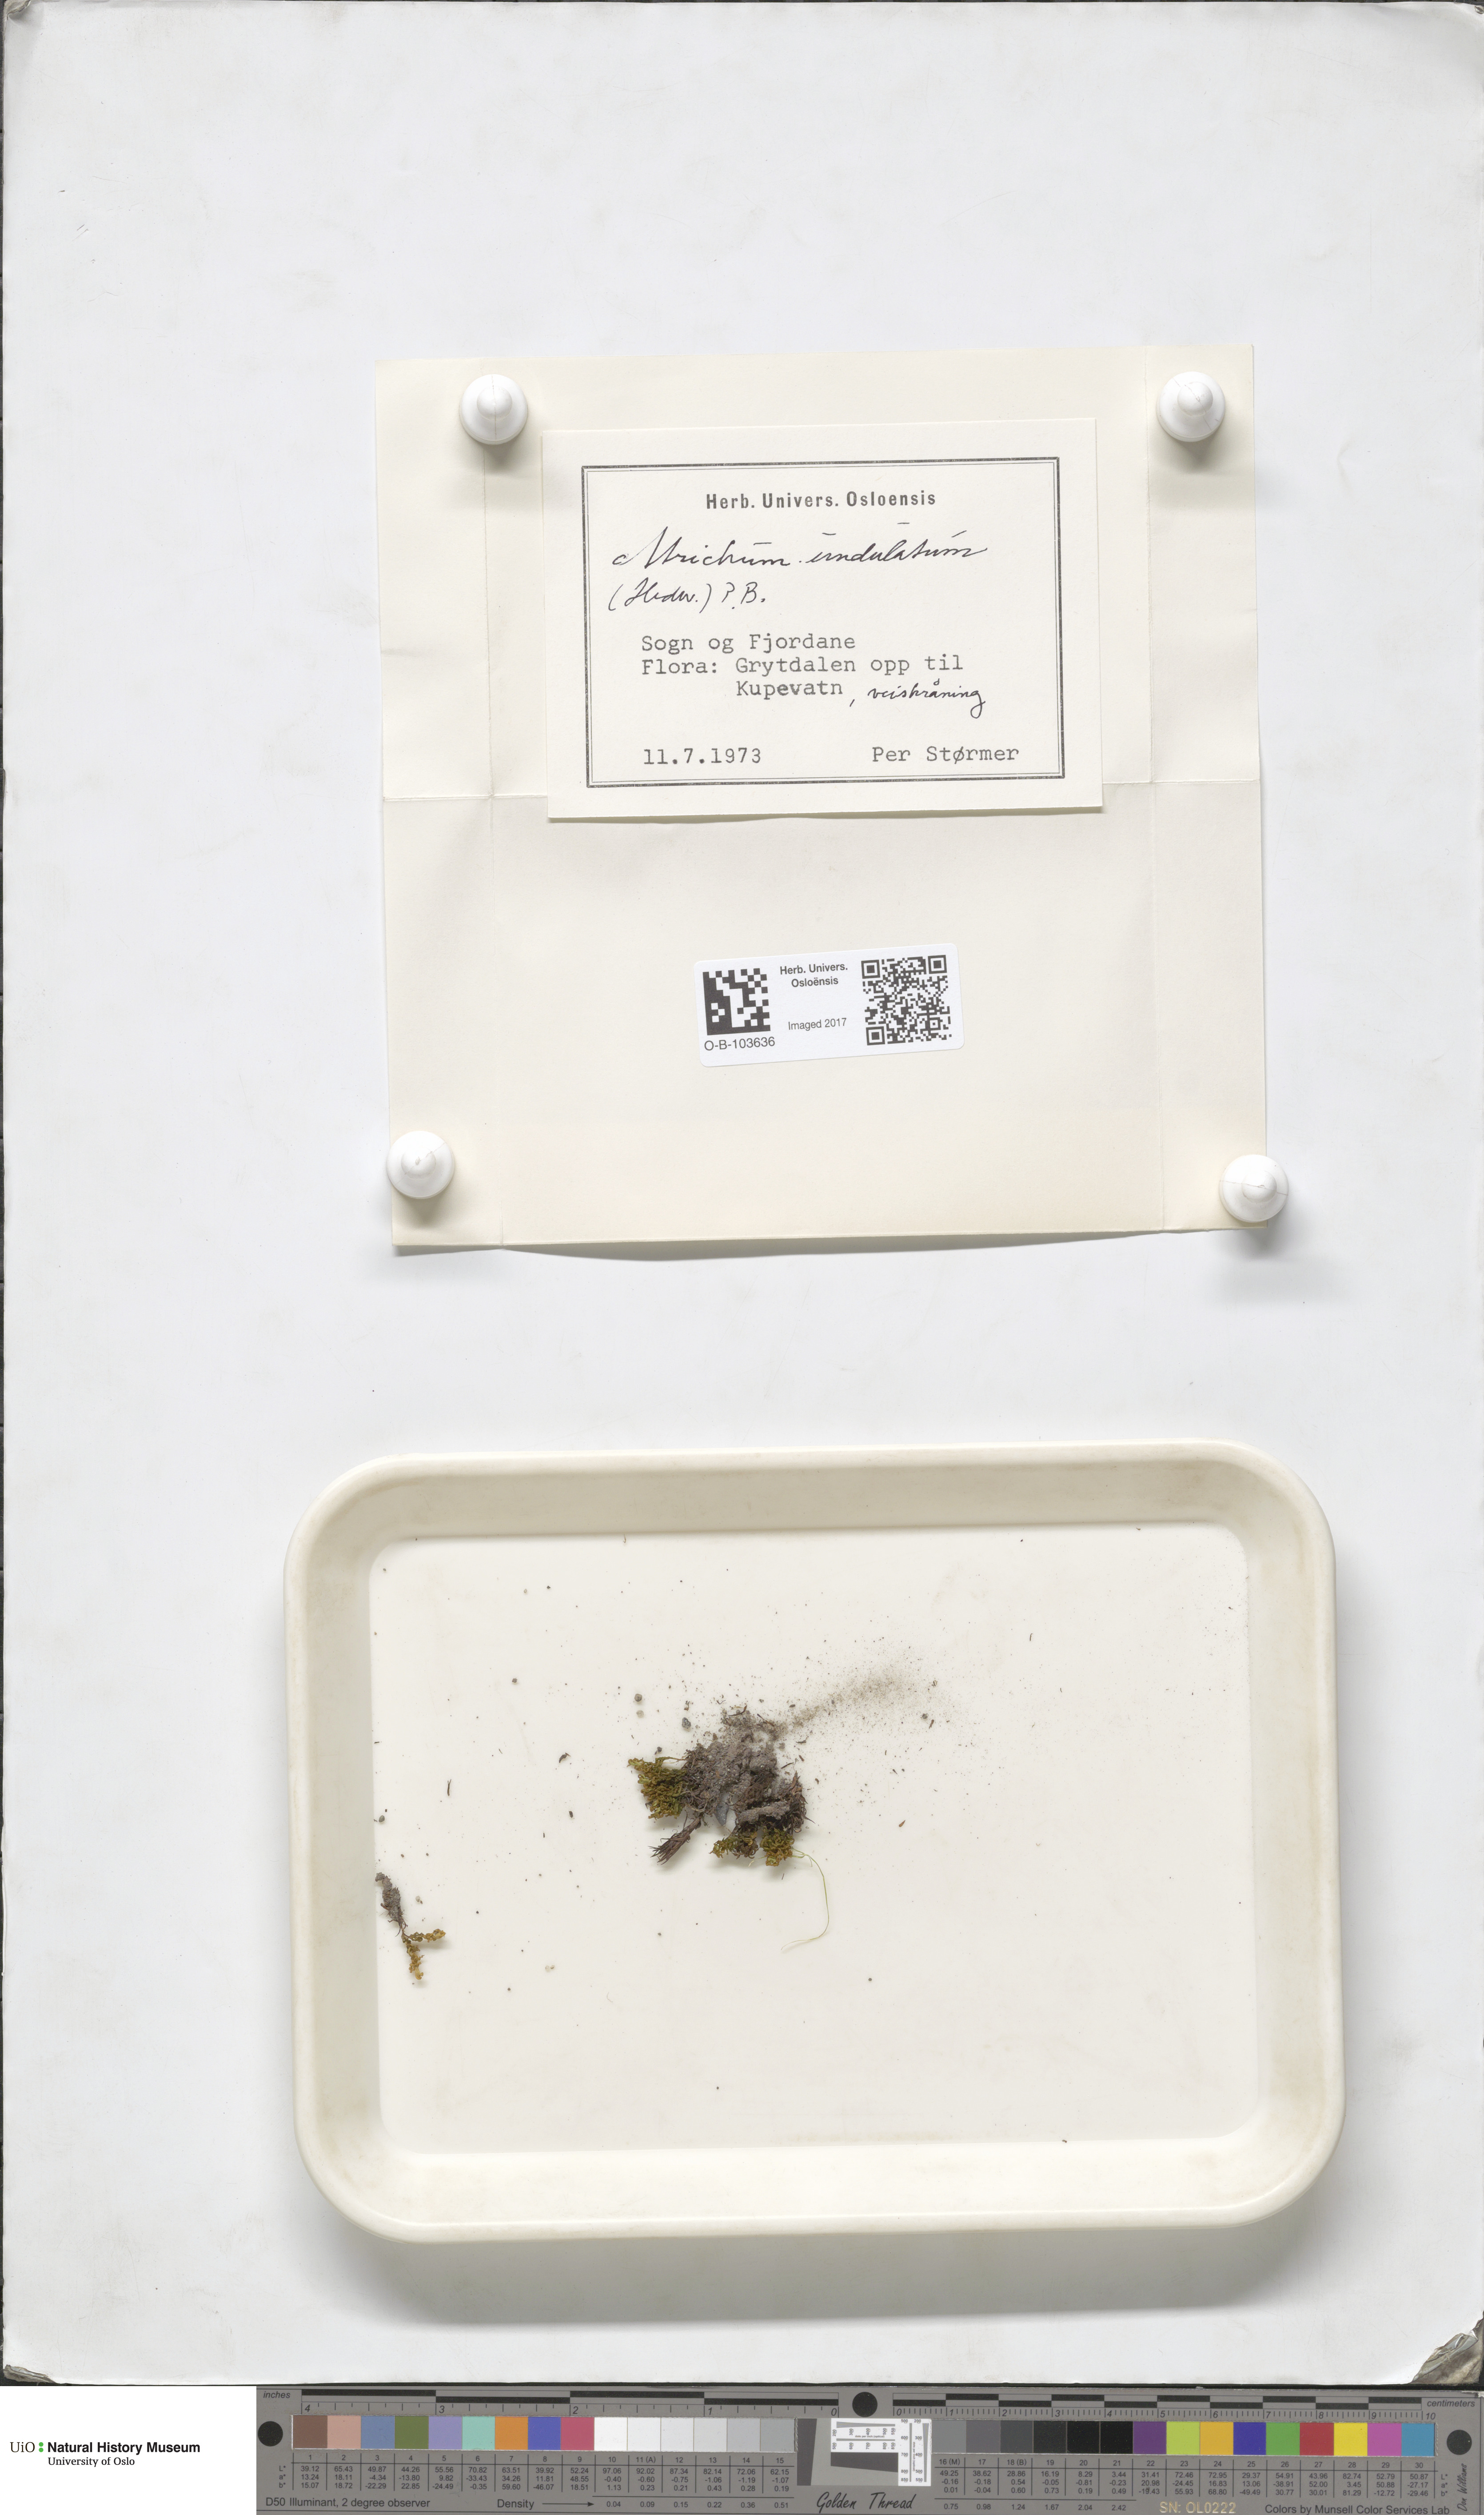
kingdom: Plantae
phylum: Bryophyta
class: Polytrichopsida
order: Polytrichales
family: Polytrichaceae
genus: Atrichum
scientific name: Atrichum undulatum
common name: Common smoothcap
